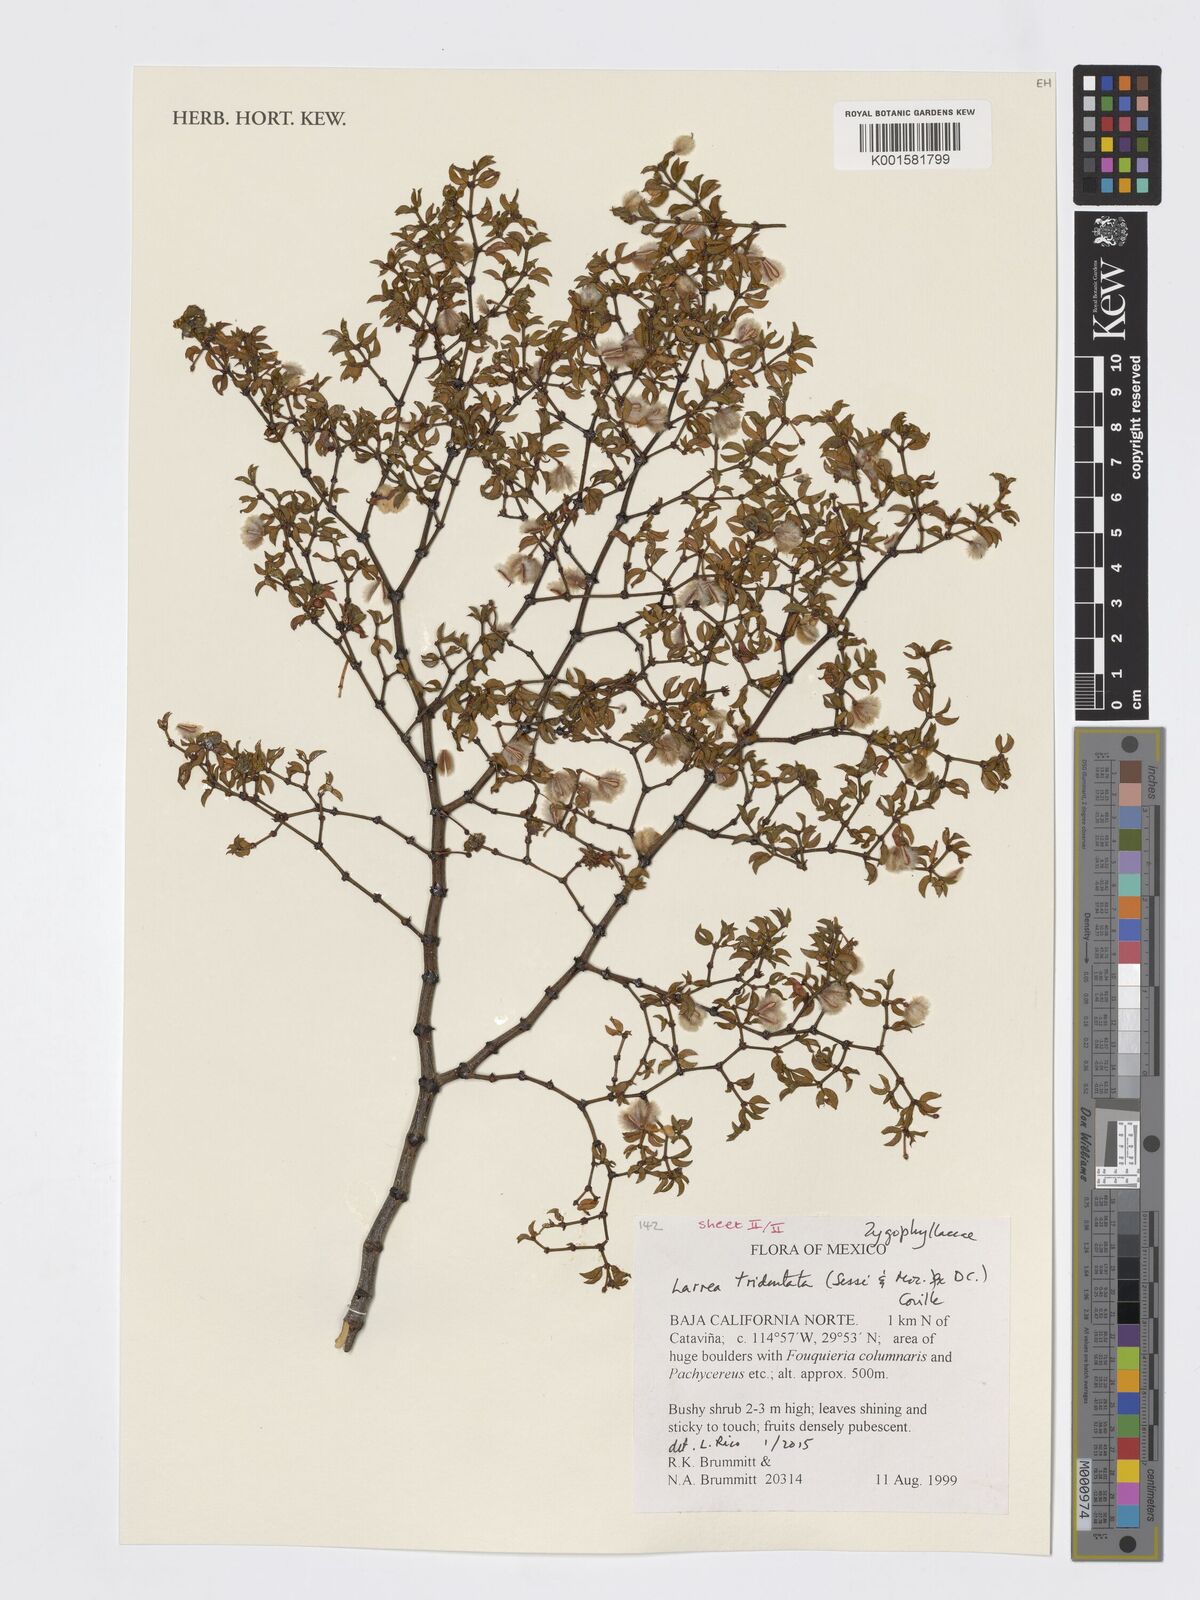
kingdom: Plantae
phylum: Tracheophyta
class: Magnoliopsida
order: Zygophyllales
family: Zygophyllaceae
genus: Larrea
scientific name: Larrea tridentata
